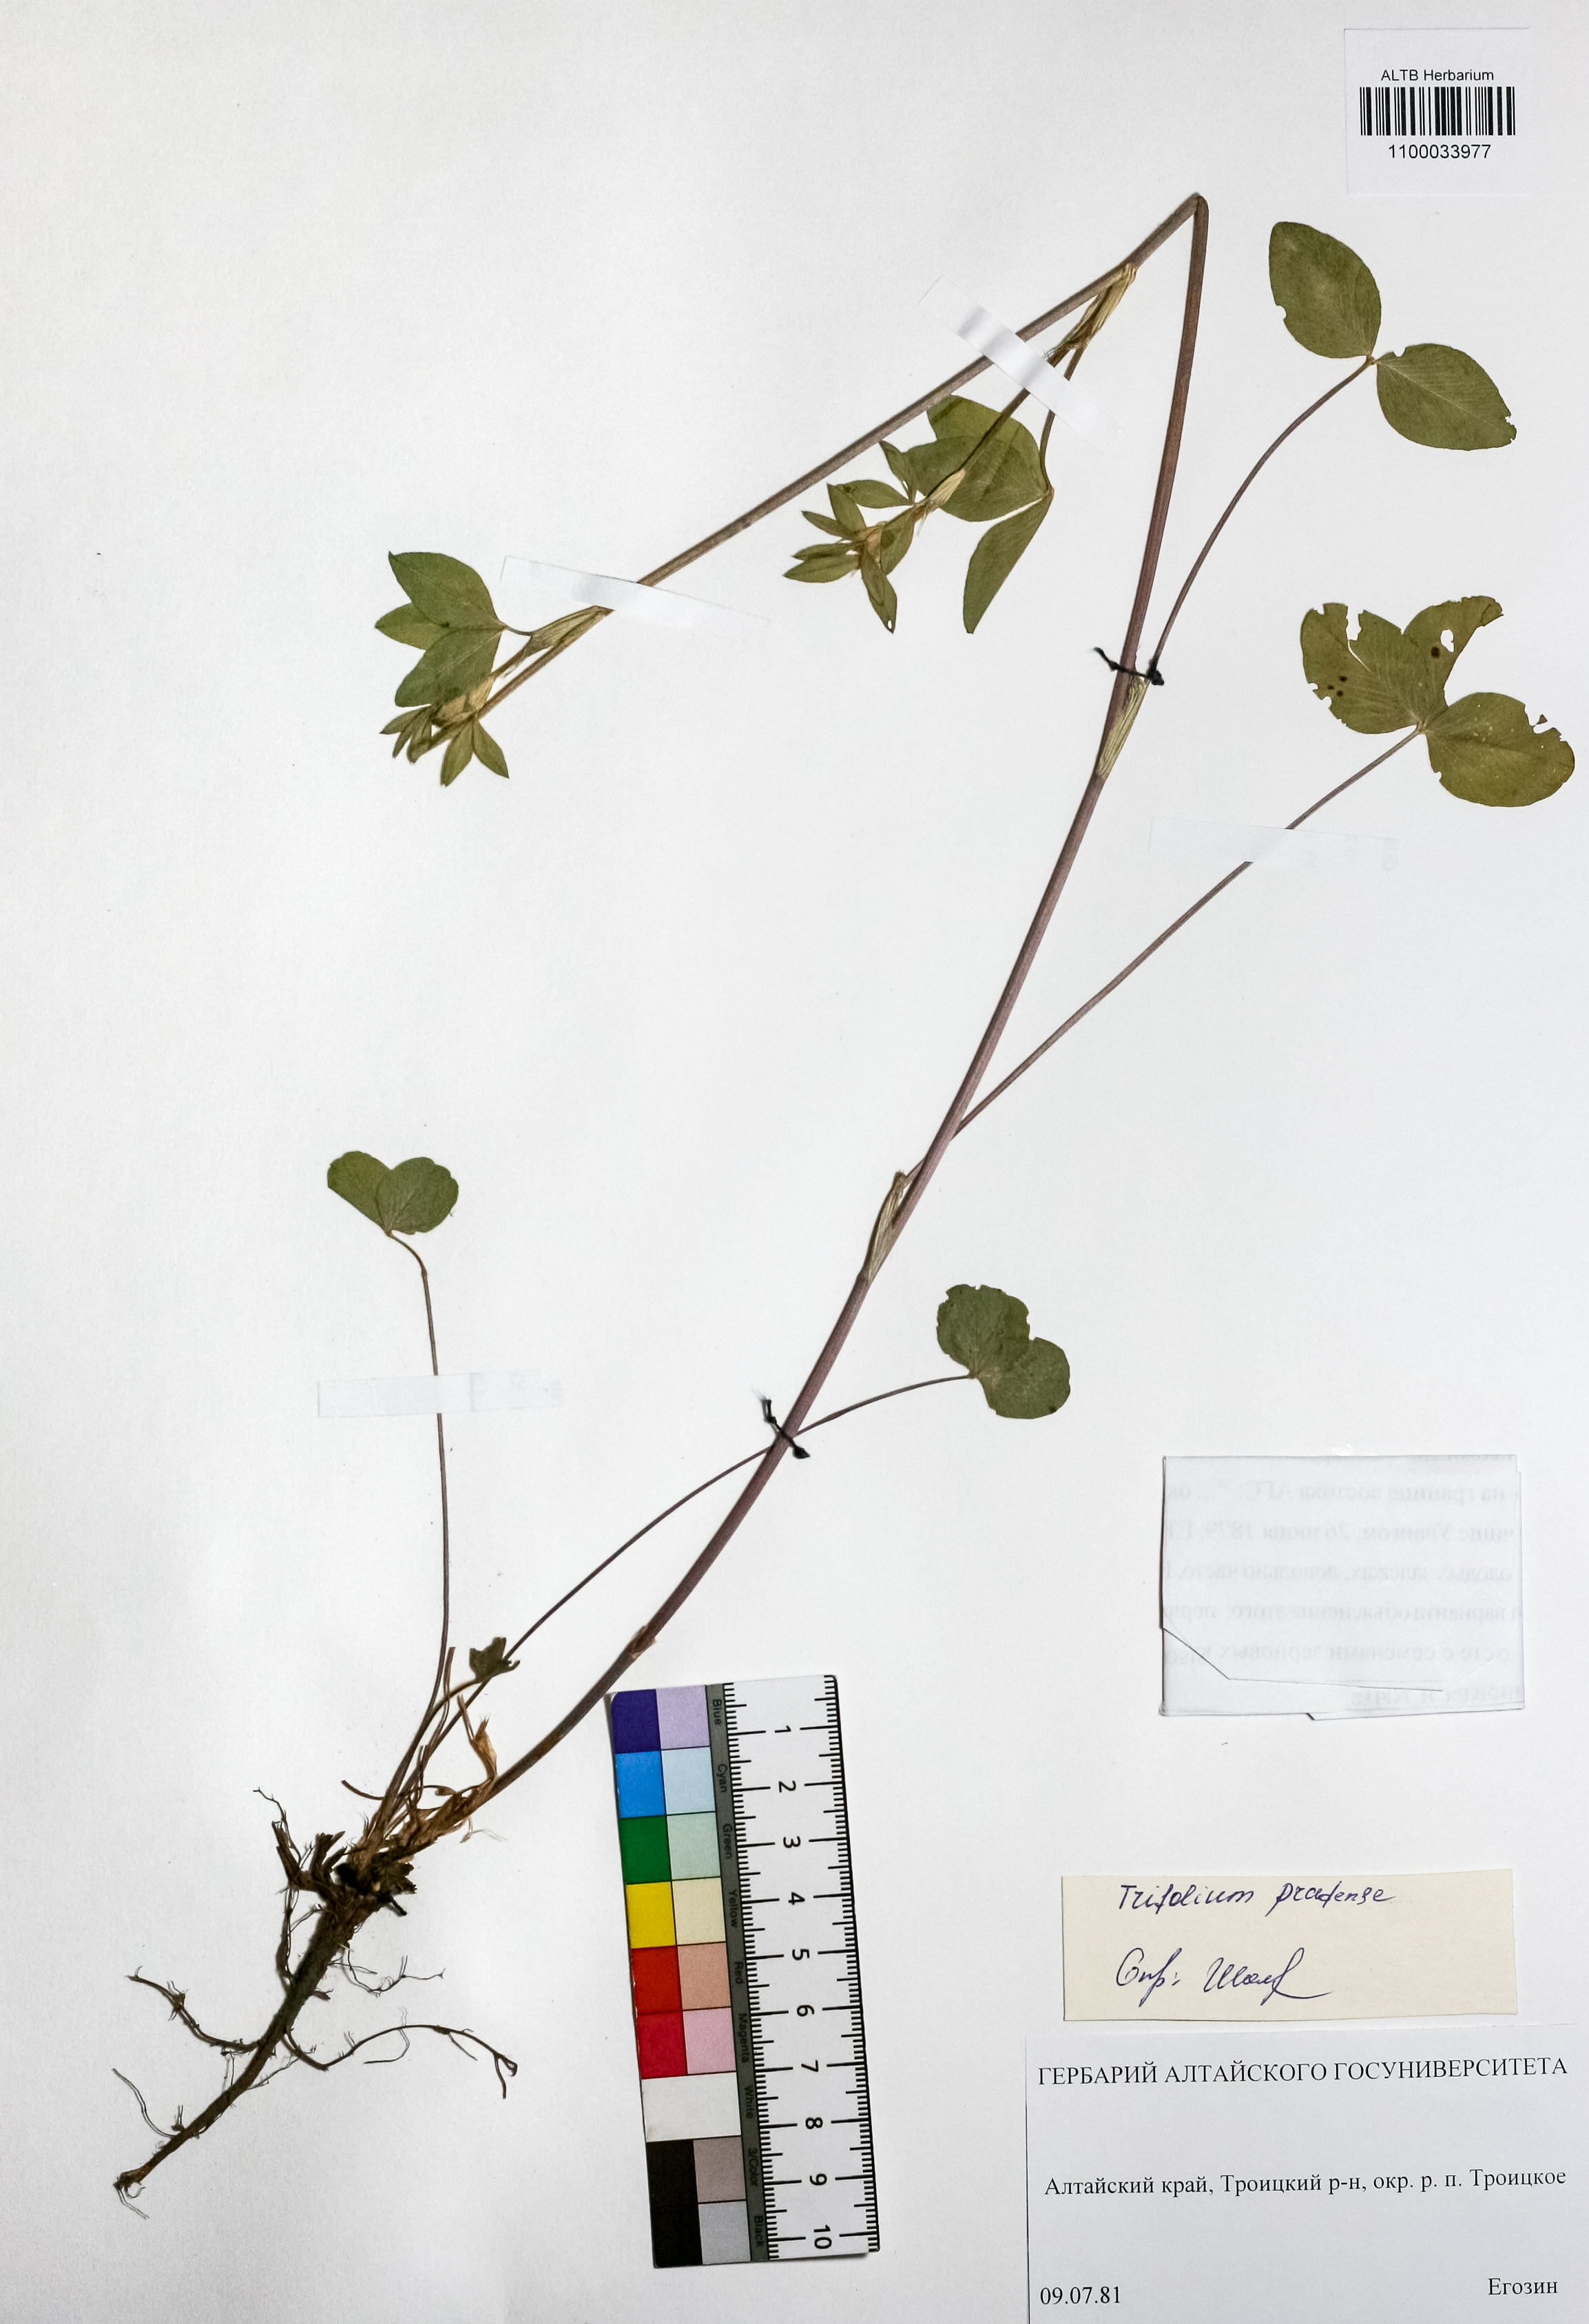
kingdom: Plantae
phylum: Tracheophyta
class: Magnoliopsida
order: Fabales
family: Fabaceae
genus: Trifolium
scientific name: Trifolium pratense
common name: Red clover
